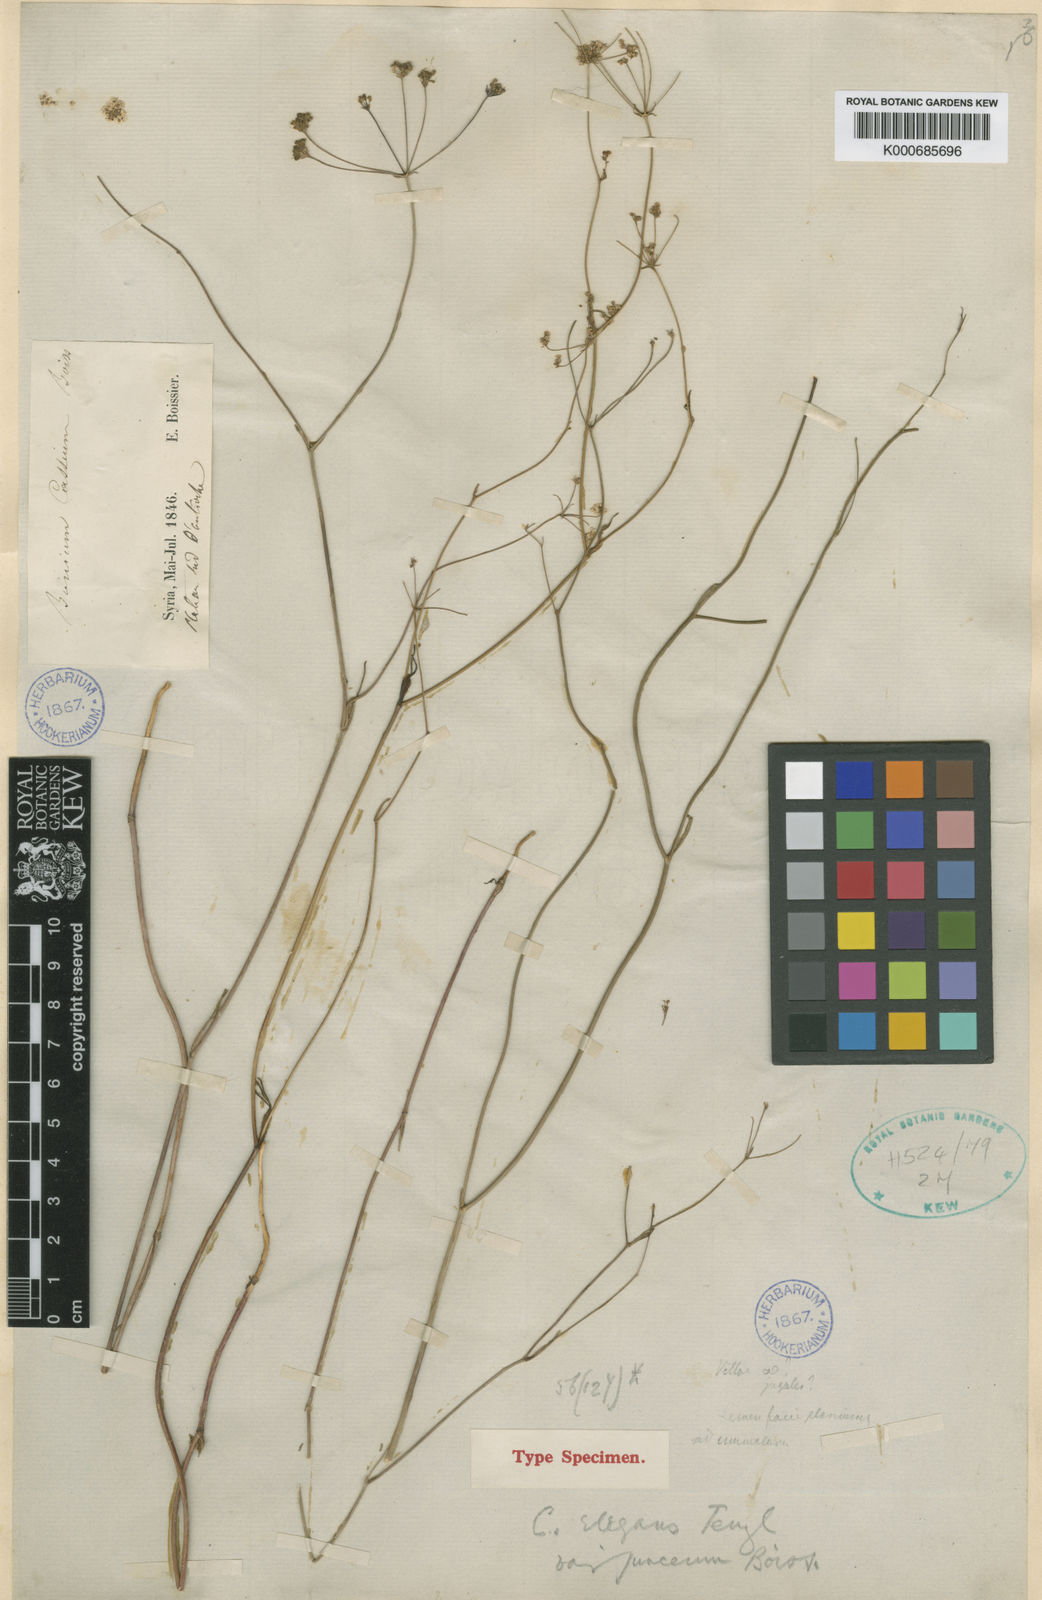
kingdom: Plantae
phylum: Tracheophyta
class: Magnoliopsida
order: Apiales
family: Apiaceae
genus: Bunium
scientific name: Bunium paucifolium
